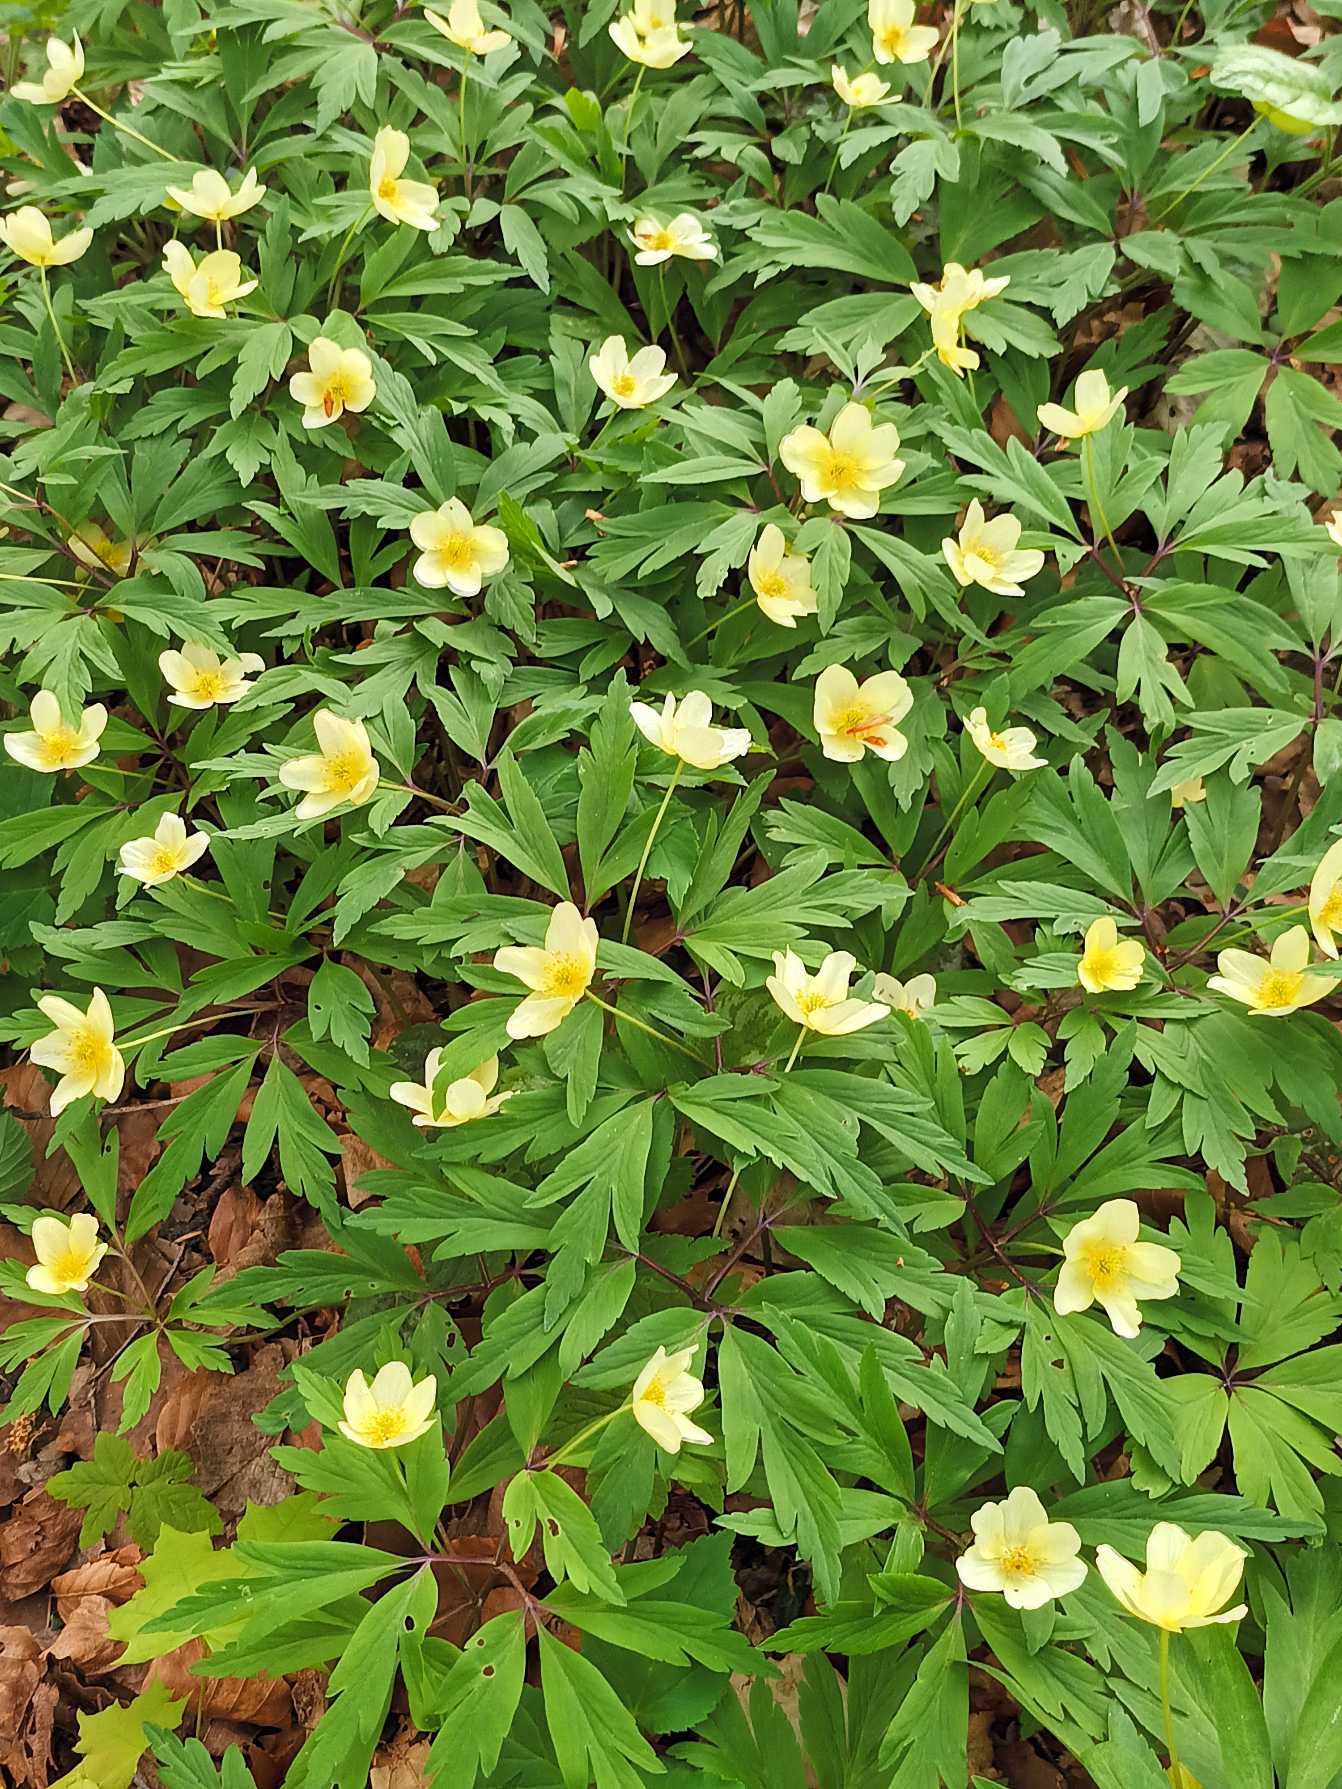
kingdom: Plantae
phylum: Tracheophyta
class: Magnoliopsida
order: Ranunculales
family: Ranunculaceae
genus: Anemone
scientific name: Anemone
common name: Svovlgul anemone
